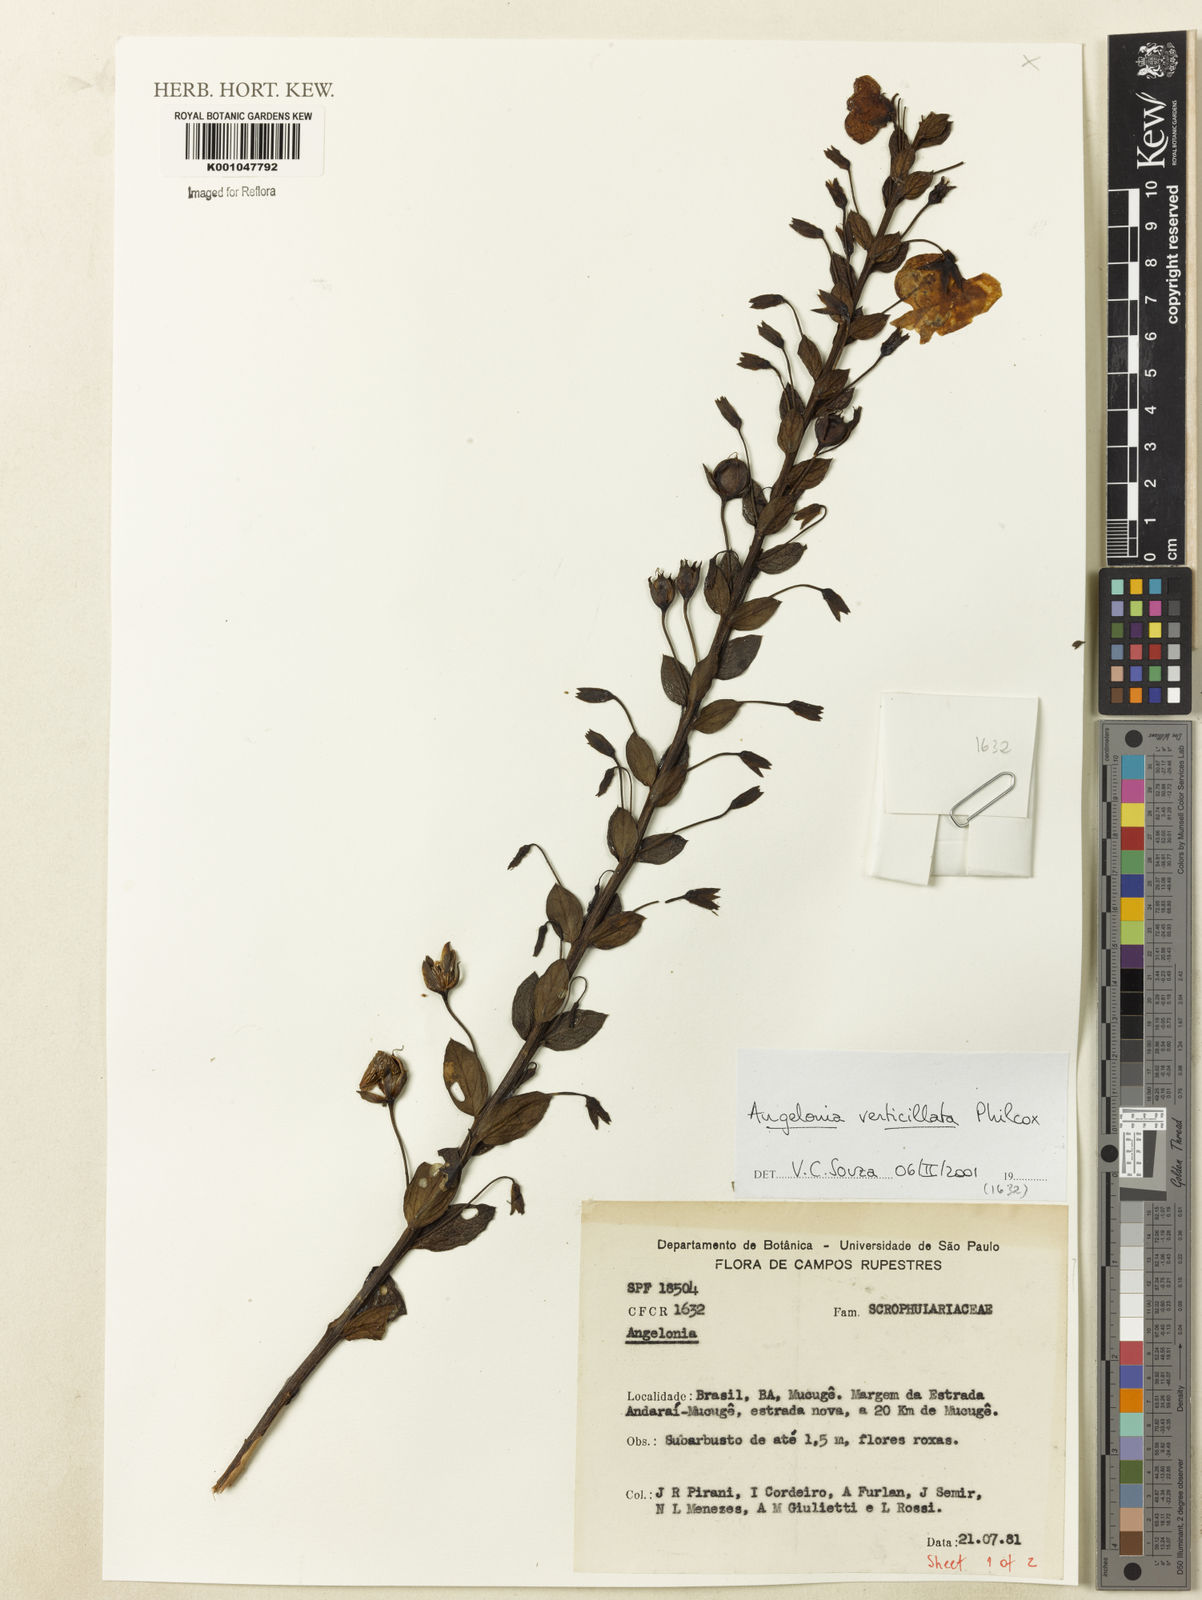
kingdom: Plantae
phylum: Tracheophyta
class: Magnoliopsida
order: Lamiales
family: Plantaginaceae
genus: Angelonia
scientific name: Angelonia verticillata
